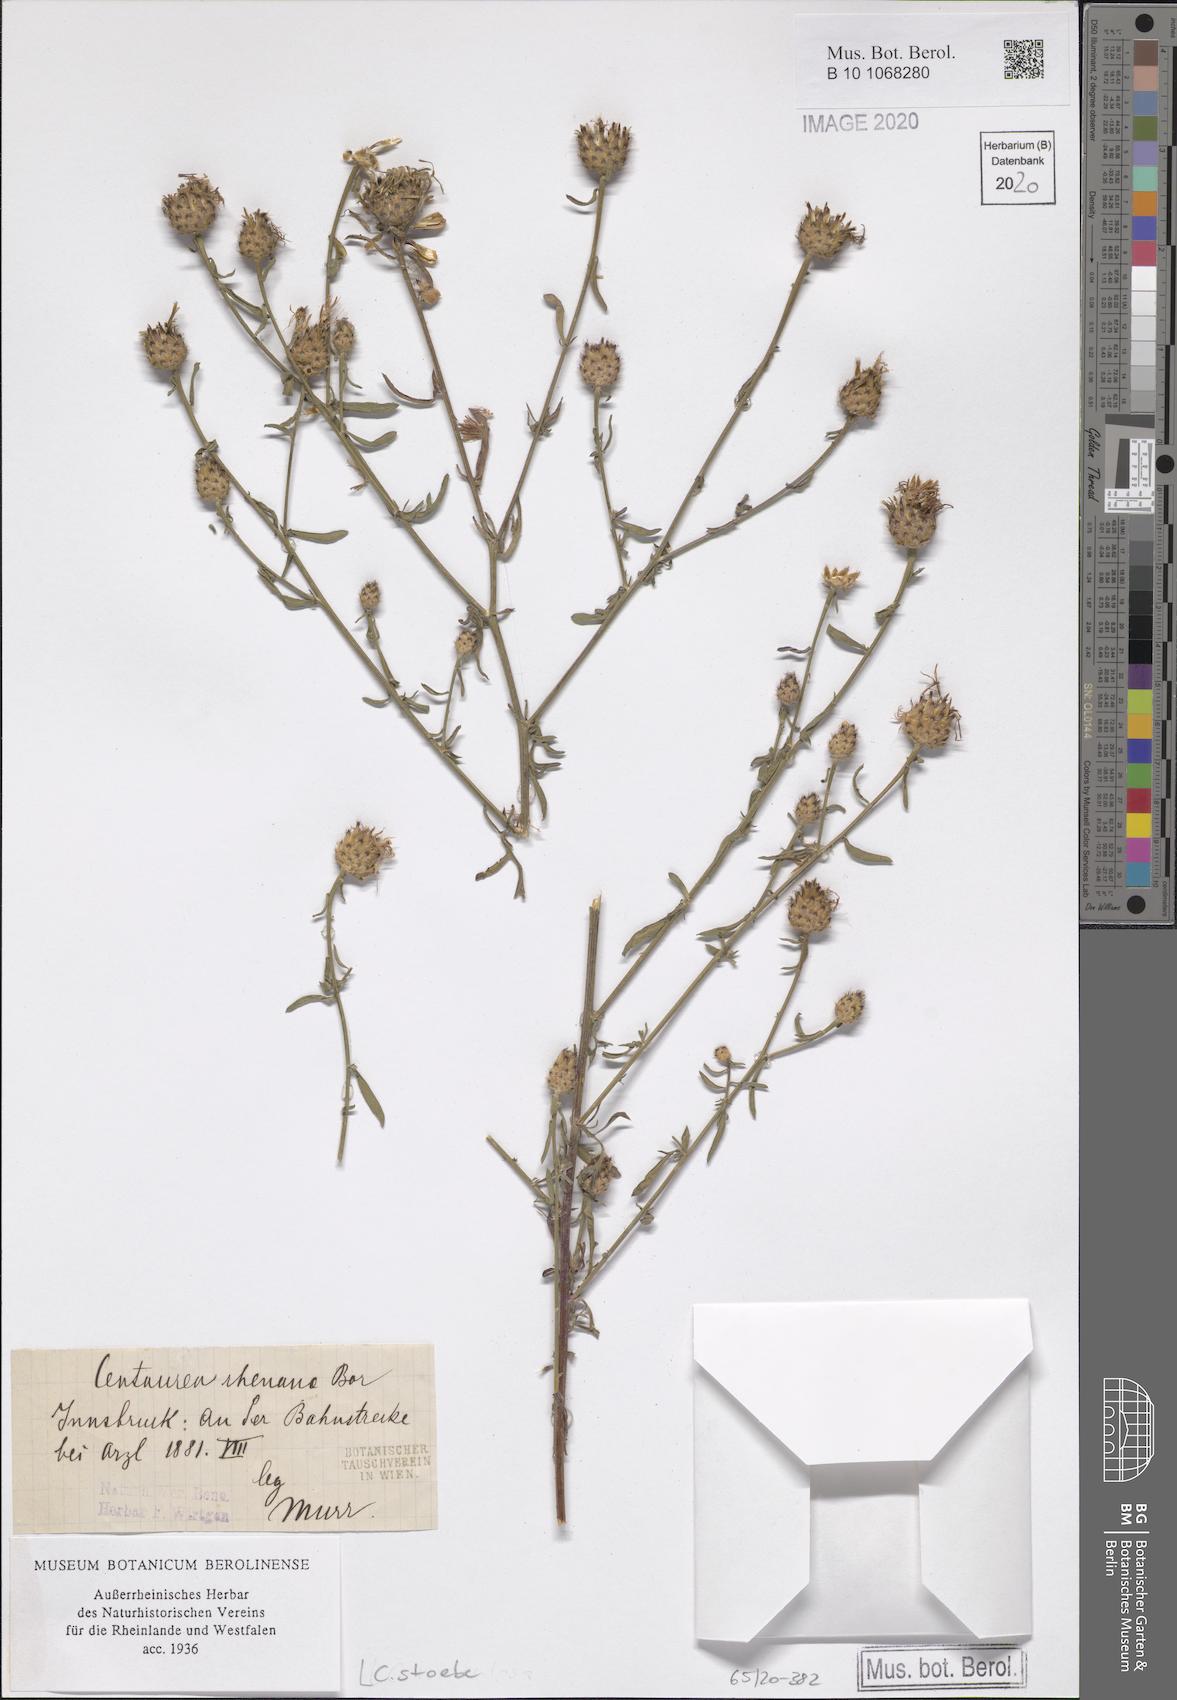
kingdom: Plantae
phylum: Tracheophyta
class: Magnoliopsida
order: Asterales
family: Asteraceae
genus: Centaurea
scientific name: Centaurea stoebe
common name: Spotted knapweed
